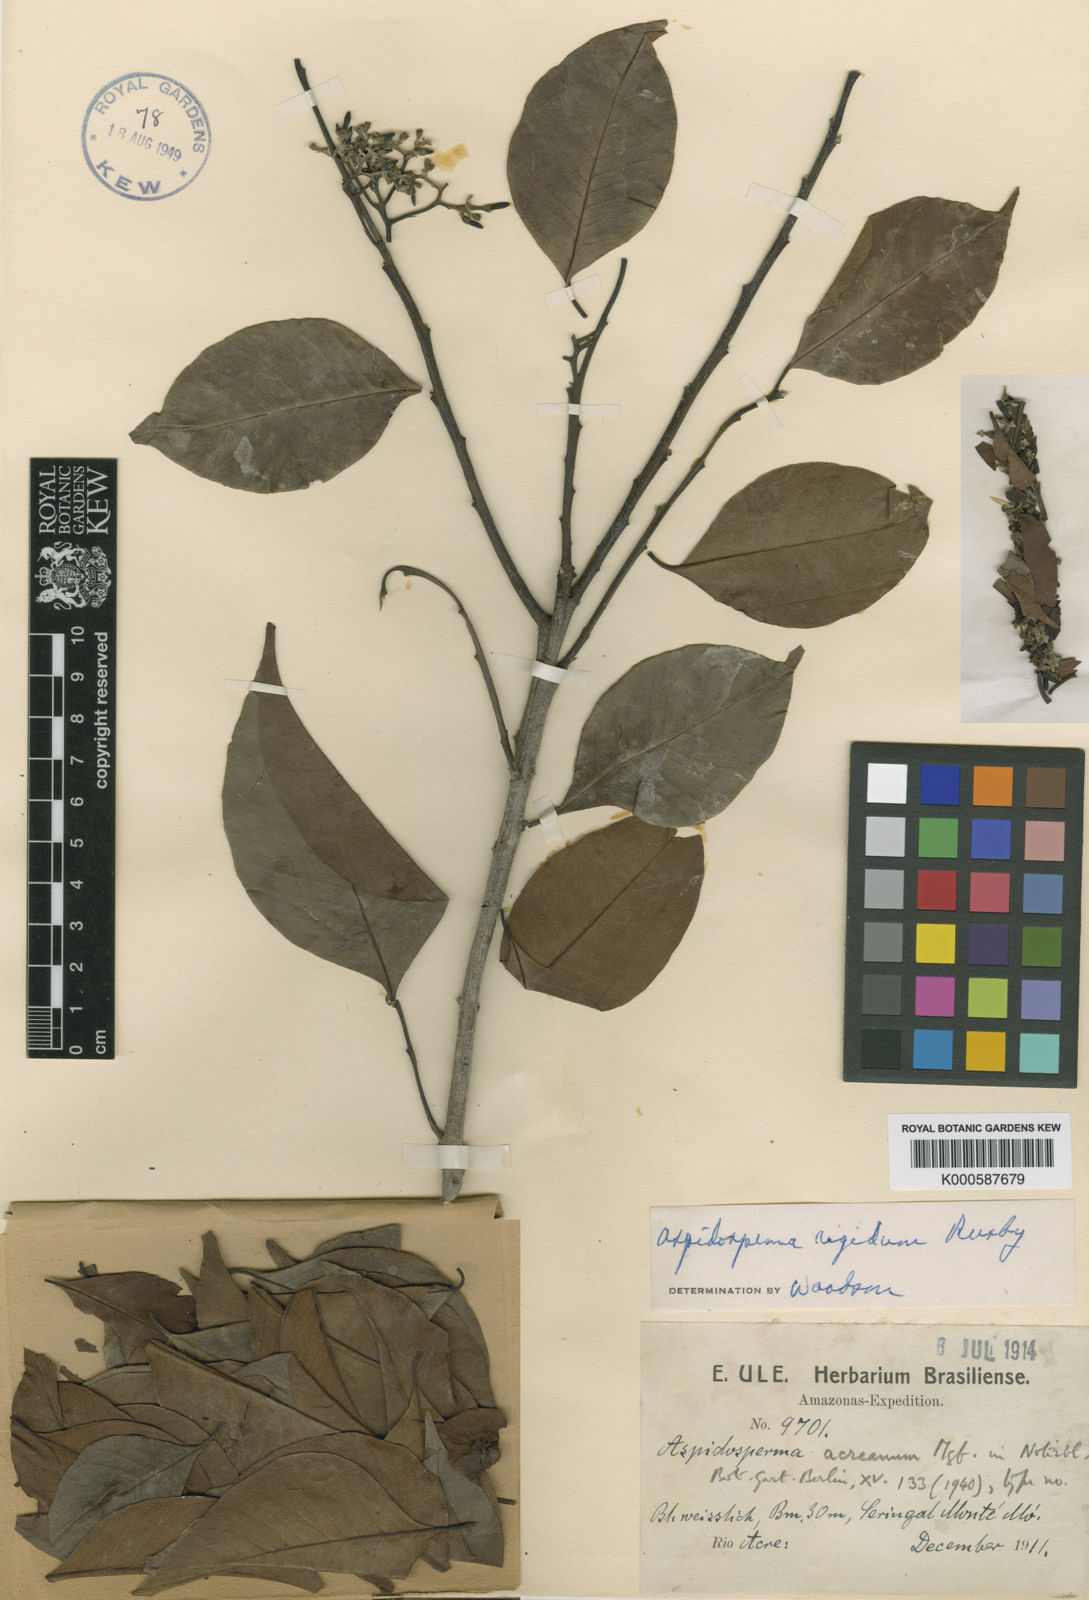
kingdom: Plantae
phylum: Tracheophyta
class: Magnoliopsida
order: Gentianales
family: Apocynaceae
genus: Aspidosperma
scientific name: Aspidosperma rigidum
